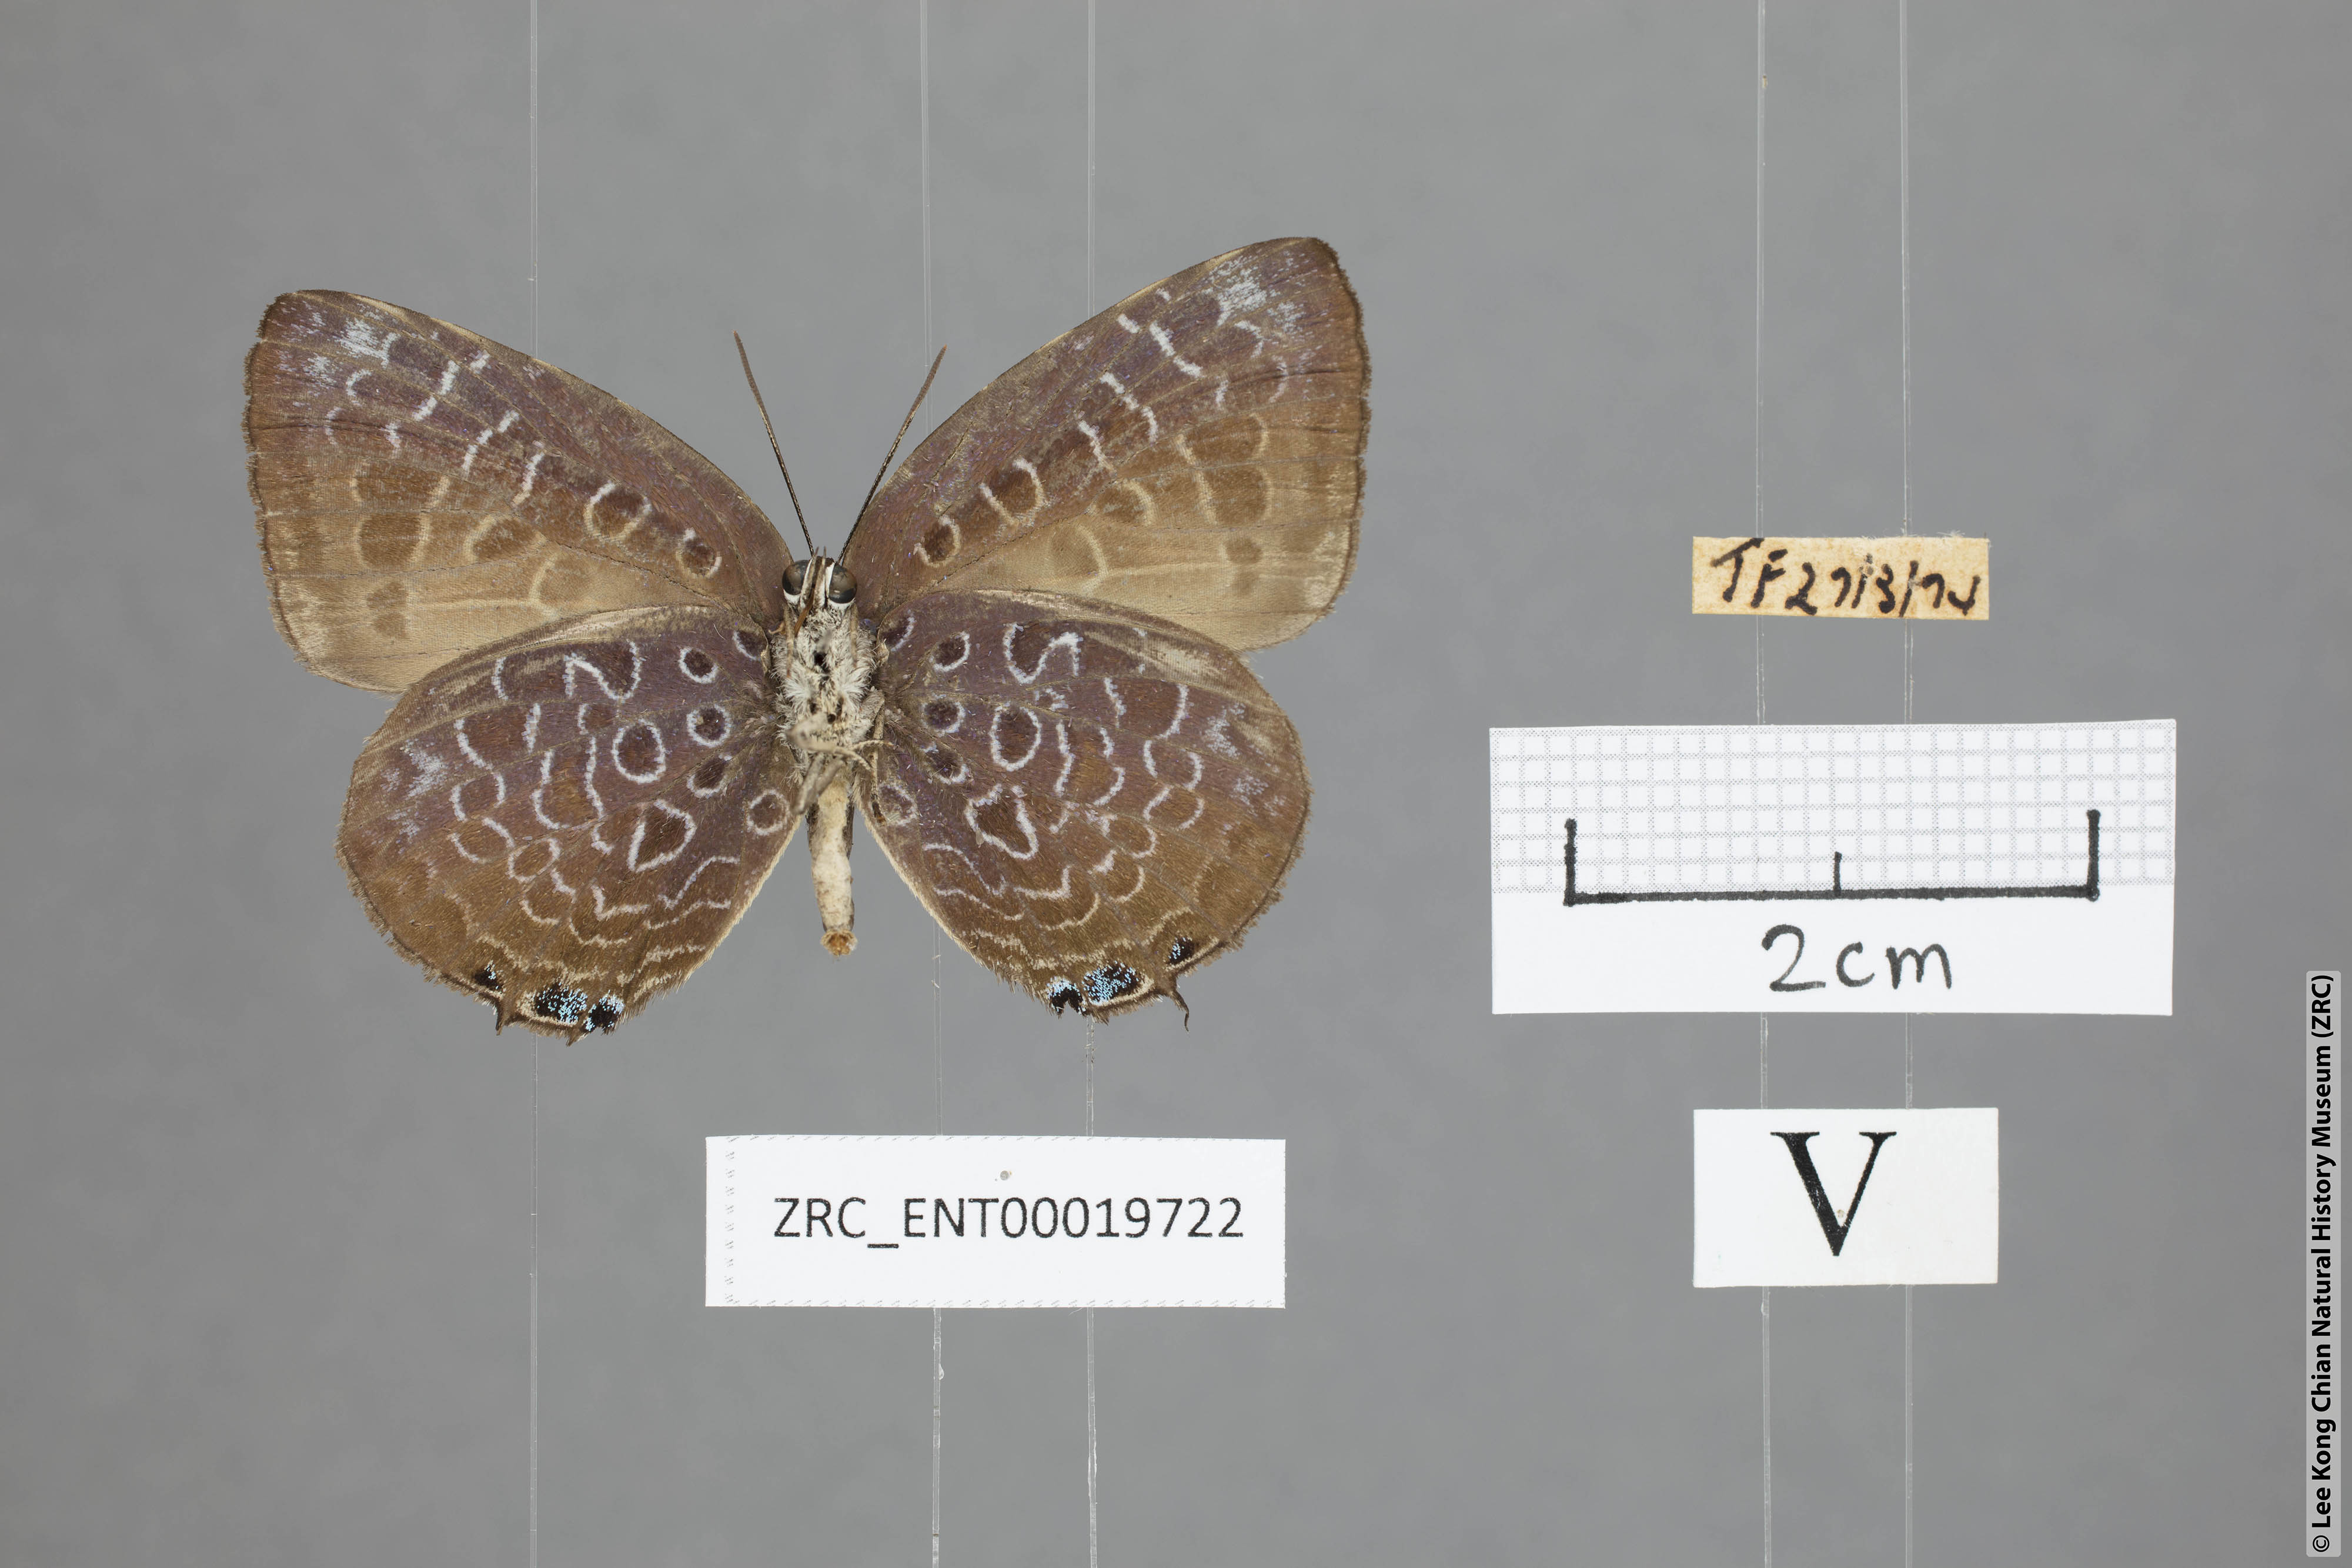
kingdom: Animalia
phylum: Arthropoda
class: Insecta
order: Lepidoptera
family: Lycaenidae
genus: Arhopala
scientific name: Arhopala myrzala
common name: Malayan oakblue
